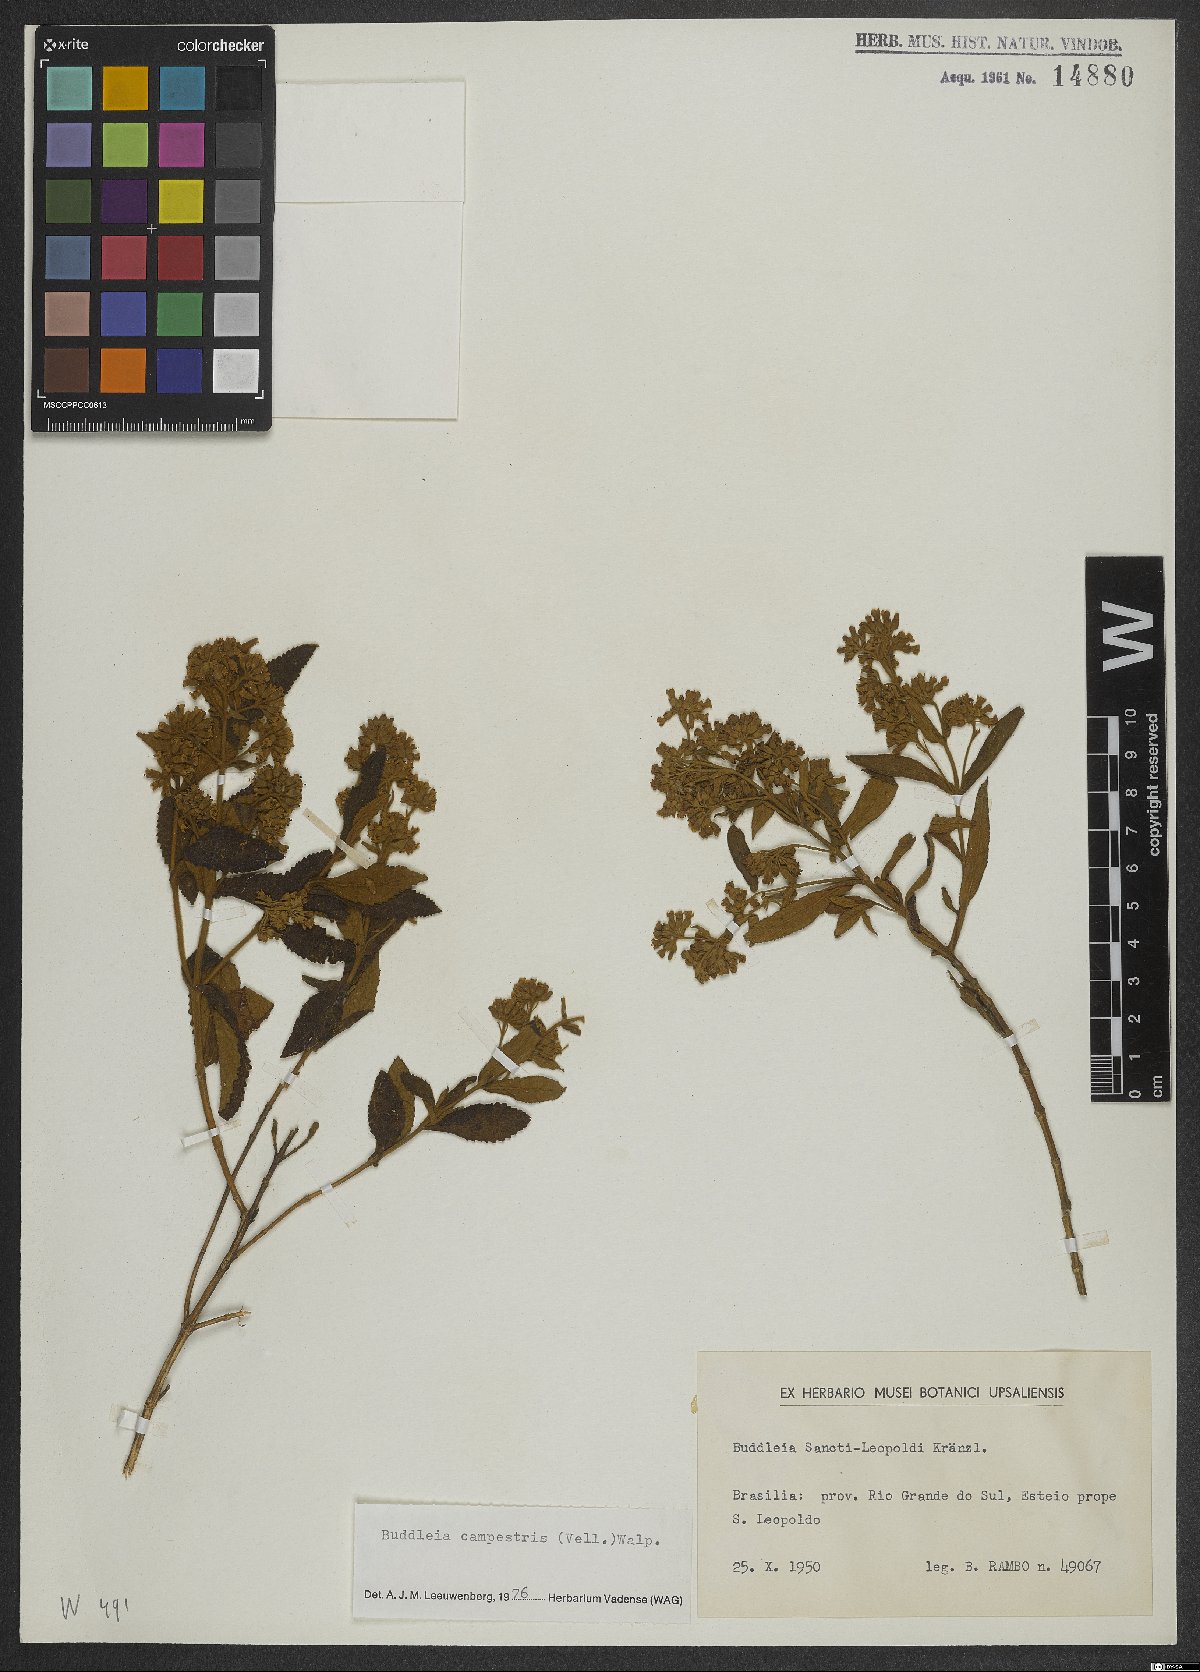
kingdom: Plantae
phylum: Tracheophyta
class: Magnoliopsida
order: Lamiales
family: Scrophulariaceae
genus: Buddleja
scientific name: Buddleja elegans
